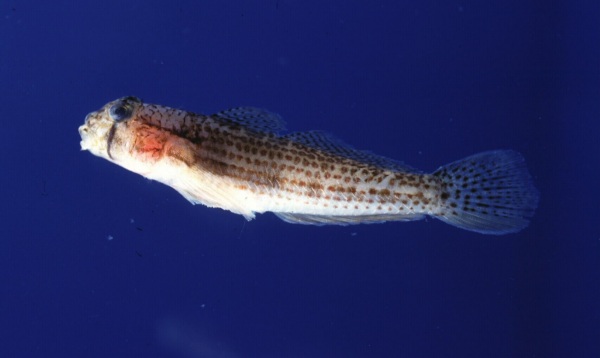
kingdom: Animalia
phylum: Chordata
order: Perciformes
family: Gobiidae
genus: Gnatholepis
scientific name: Gnatholepis cauerensis
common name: Bridled goby
